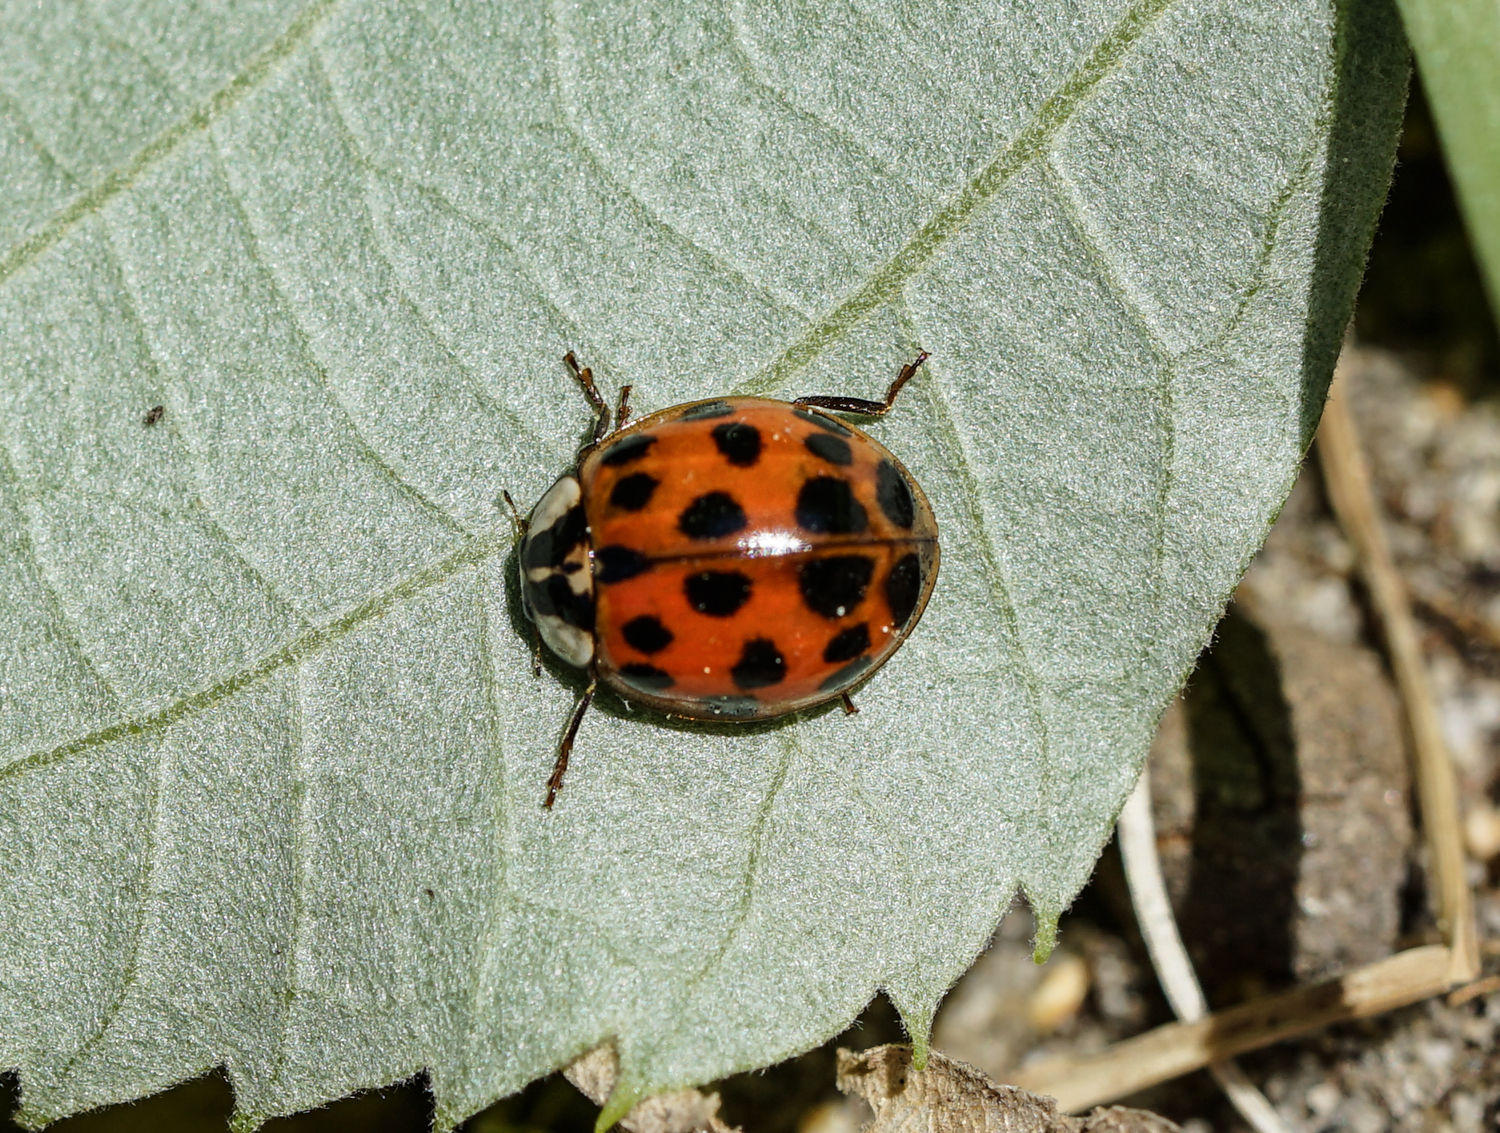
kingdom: Animalia
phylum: Arthropoda
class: Insecta
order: Coleoptera
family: Coccinellidae
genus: Harmonia
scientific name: Harmonia axyridis
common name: Harlequin ladybird
